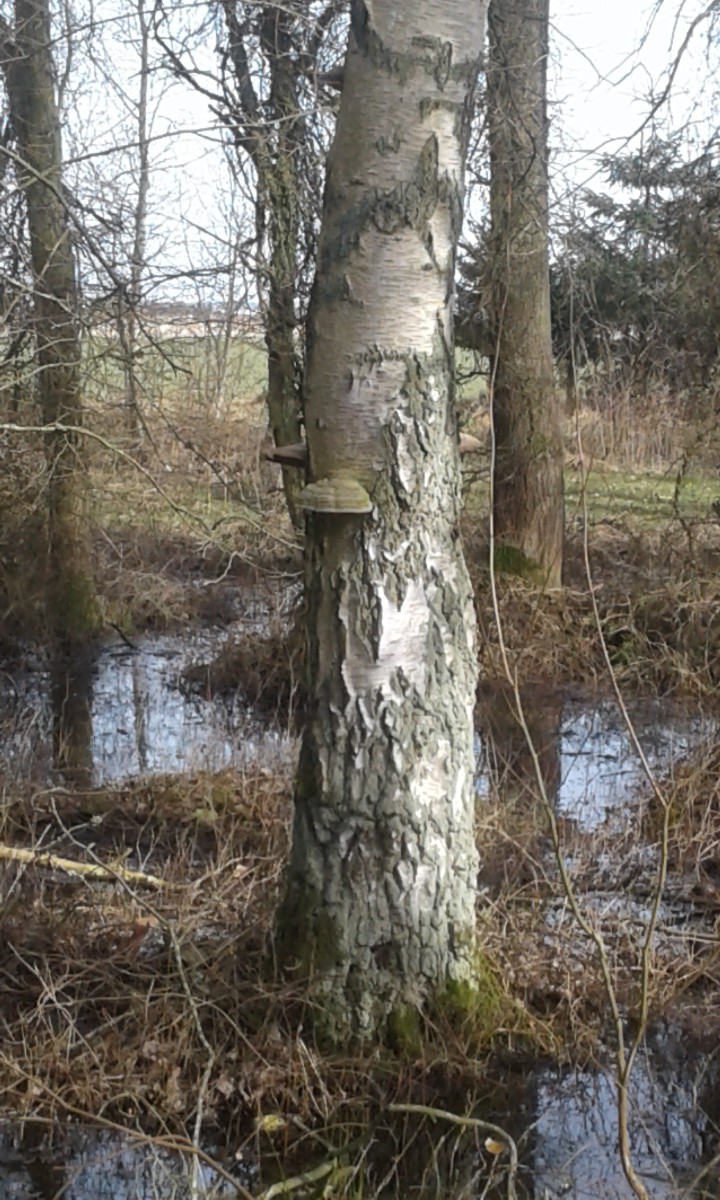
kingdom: Fungi
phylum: Basidiomycota
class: Agaricomycetes
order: Polyporales
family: Polyporaceae
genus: Fomes
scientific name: Fomes fomentarius
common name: tøndersvamp
